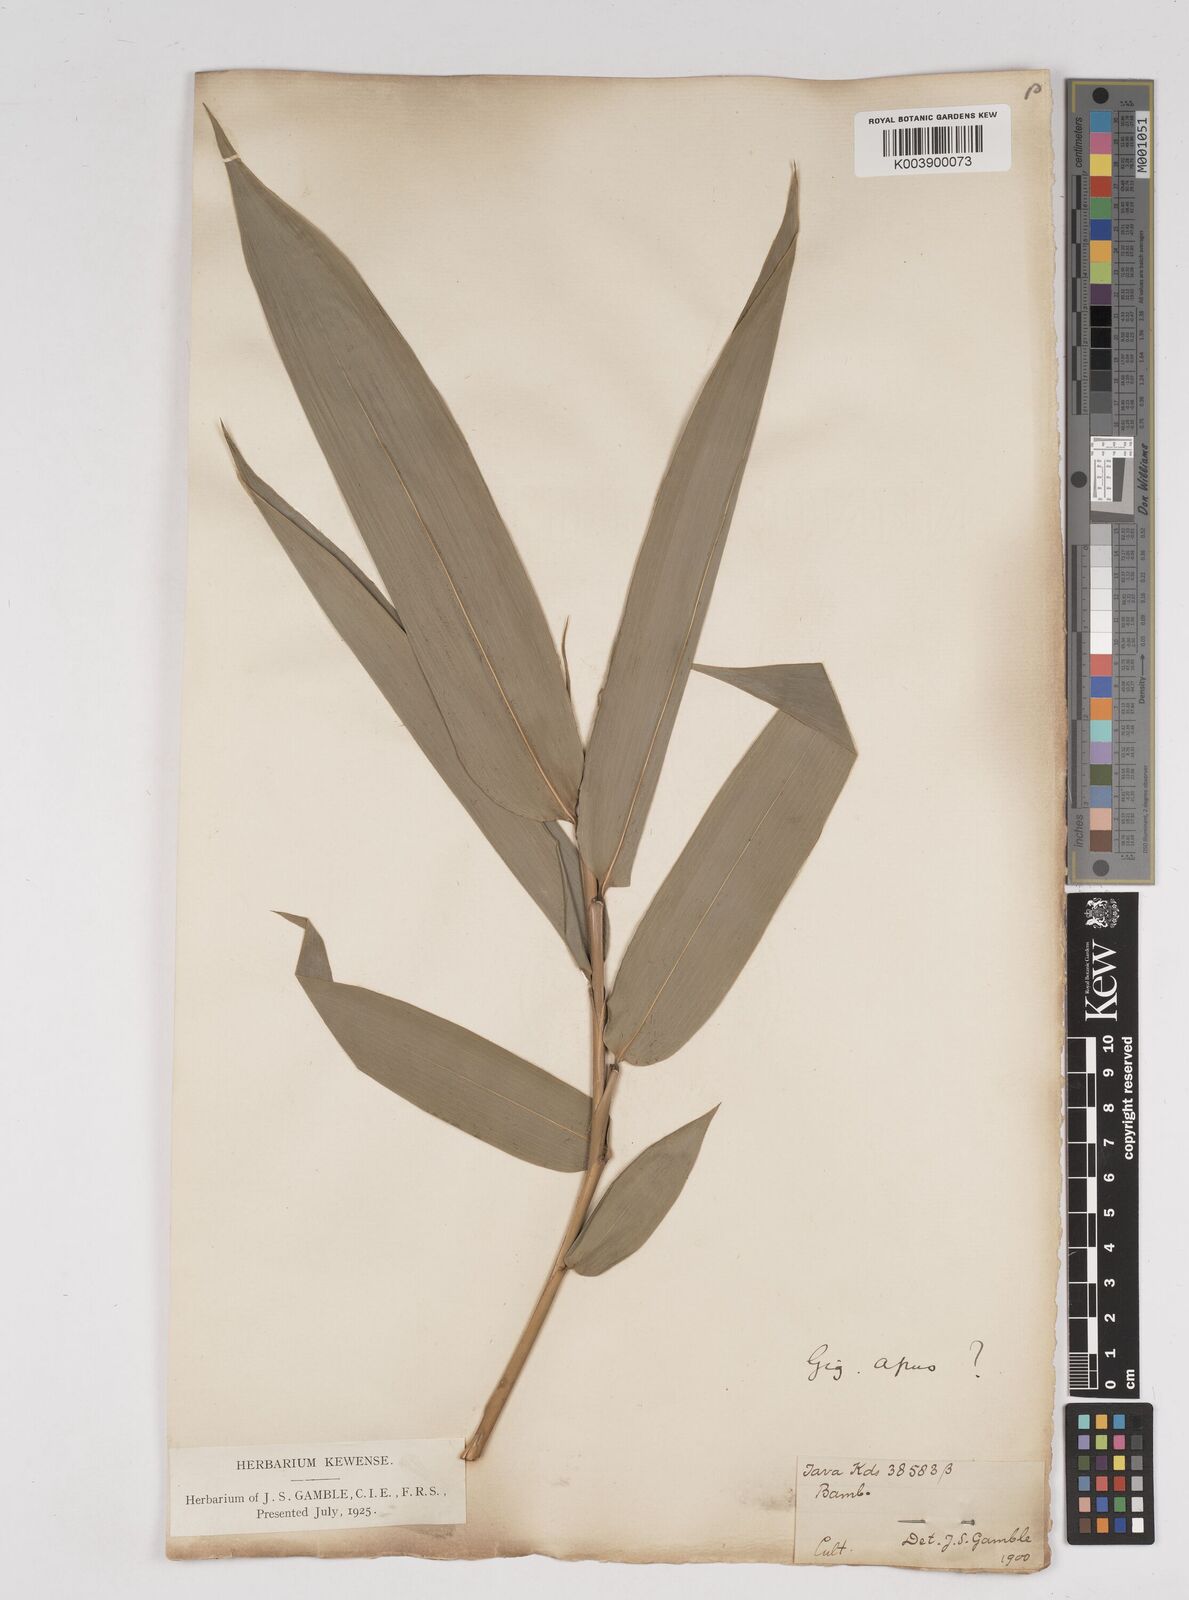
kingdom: Plantae
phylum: Tracheophyta
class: Liliopsida
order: Poales
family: Poaceae
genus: Gigantochloa
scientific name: Gigantochloa apus
